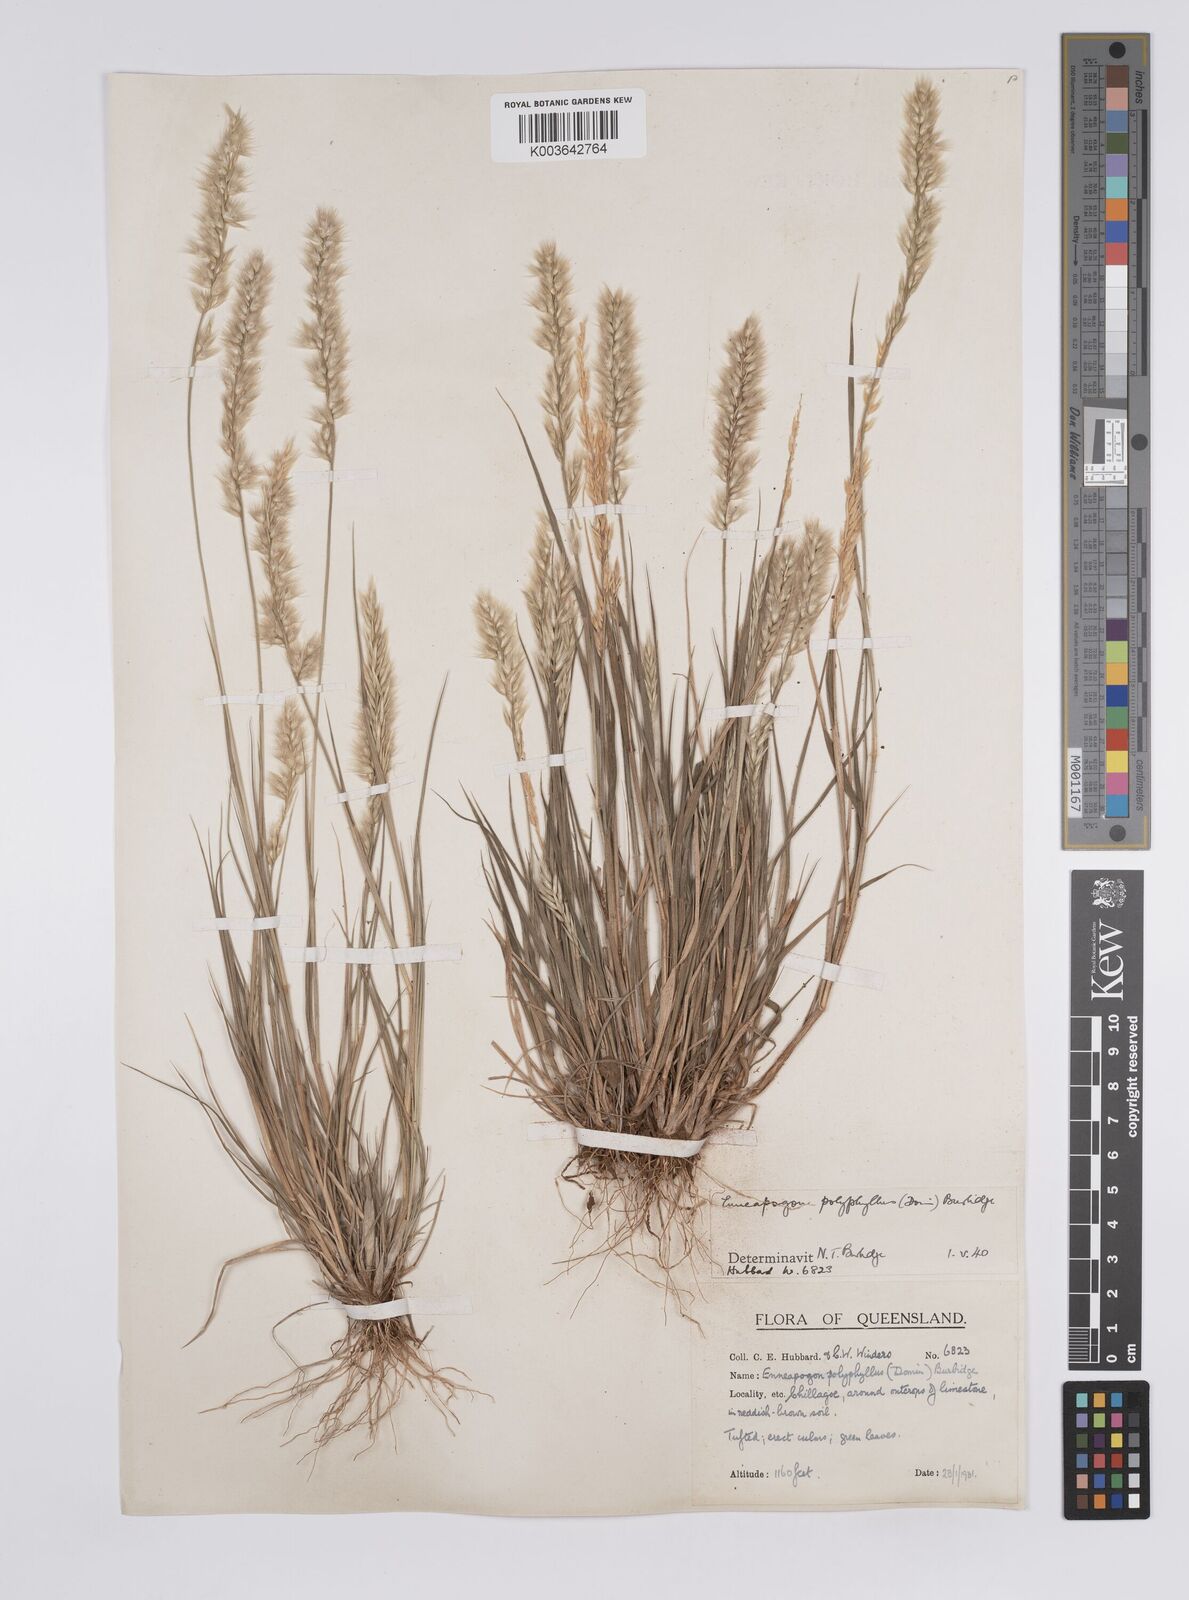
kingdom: Plantae
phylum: Tracheophyta
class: Liliopsida
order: Poales
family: Poaceae
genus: Enneapogon
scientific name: Enneapogon polyphyllus
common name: Leafy nineawn
